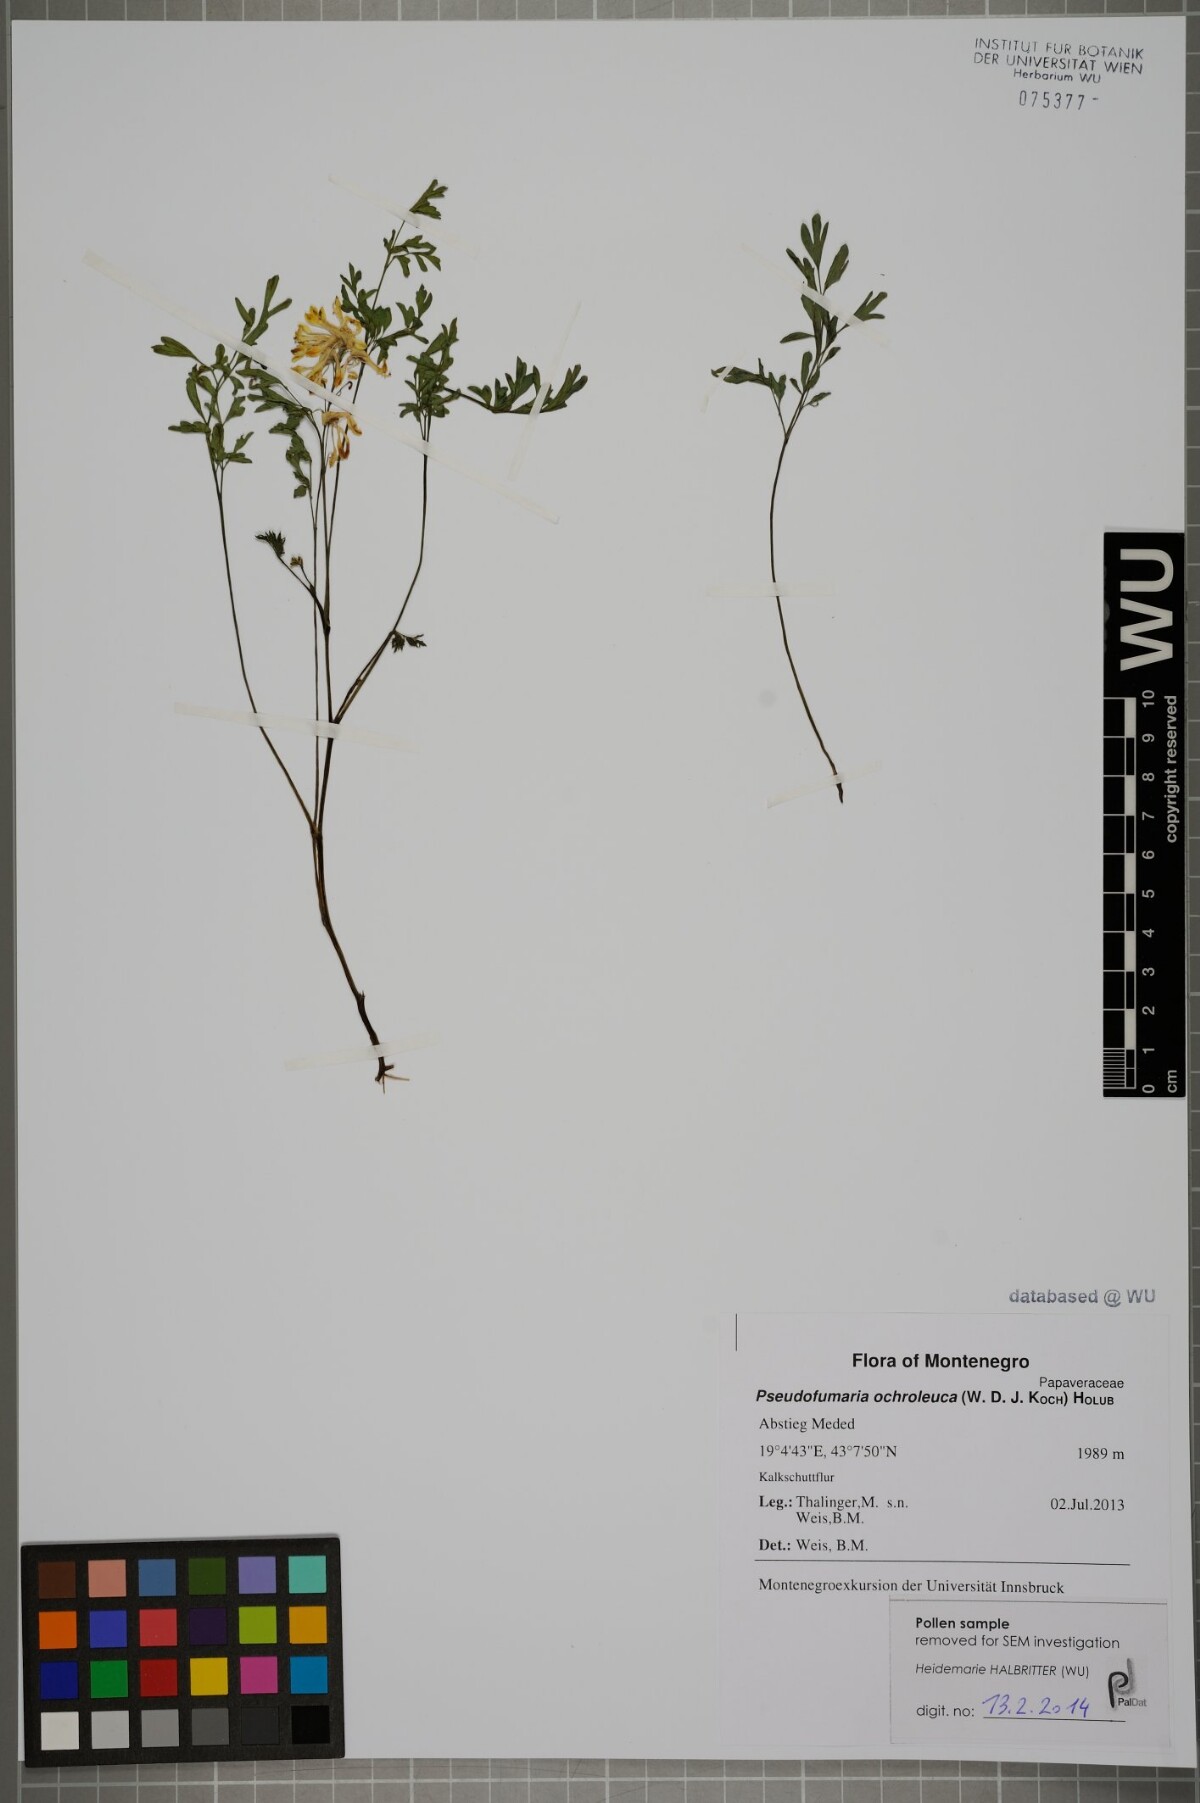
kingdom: Plantae
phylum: Tracheophyta
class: Magnoliopsida
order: Ranunculales
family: Papaveraceae
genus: Pseudofumaria
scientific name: Pseudofumaria alba
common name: Pale corydalis
